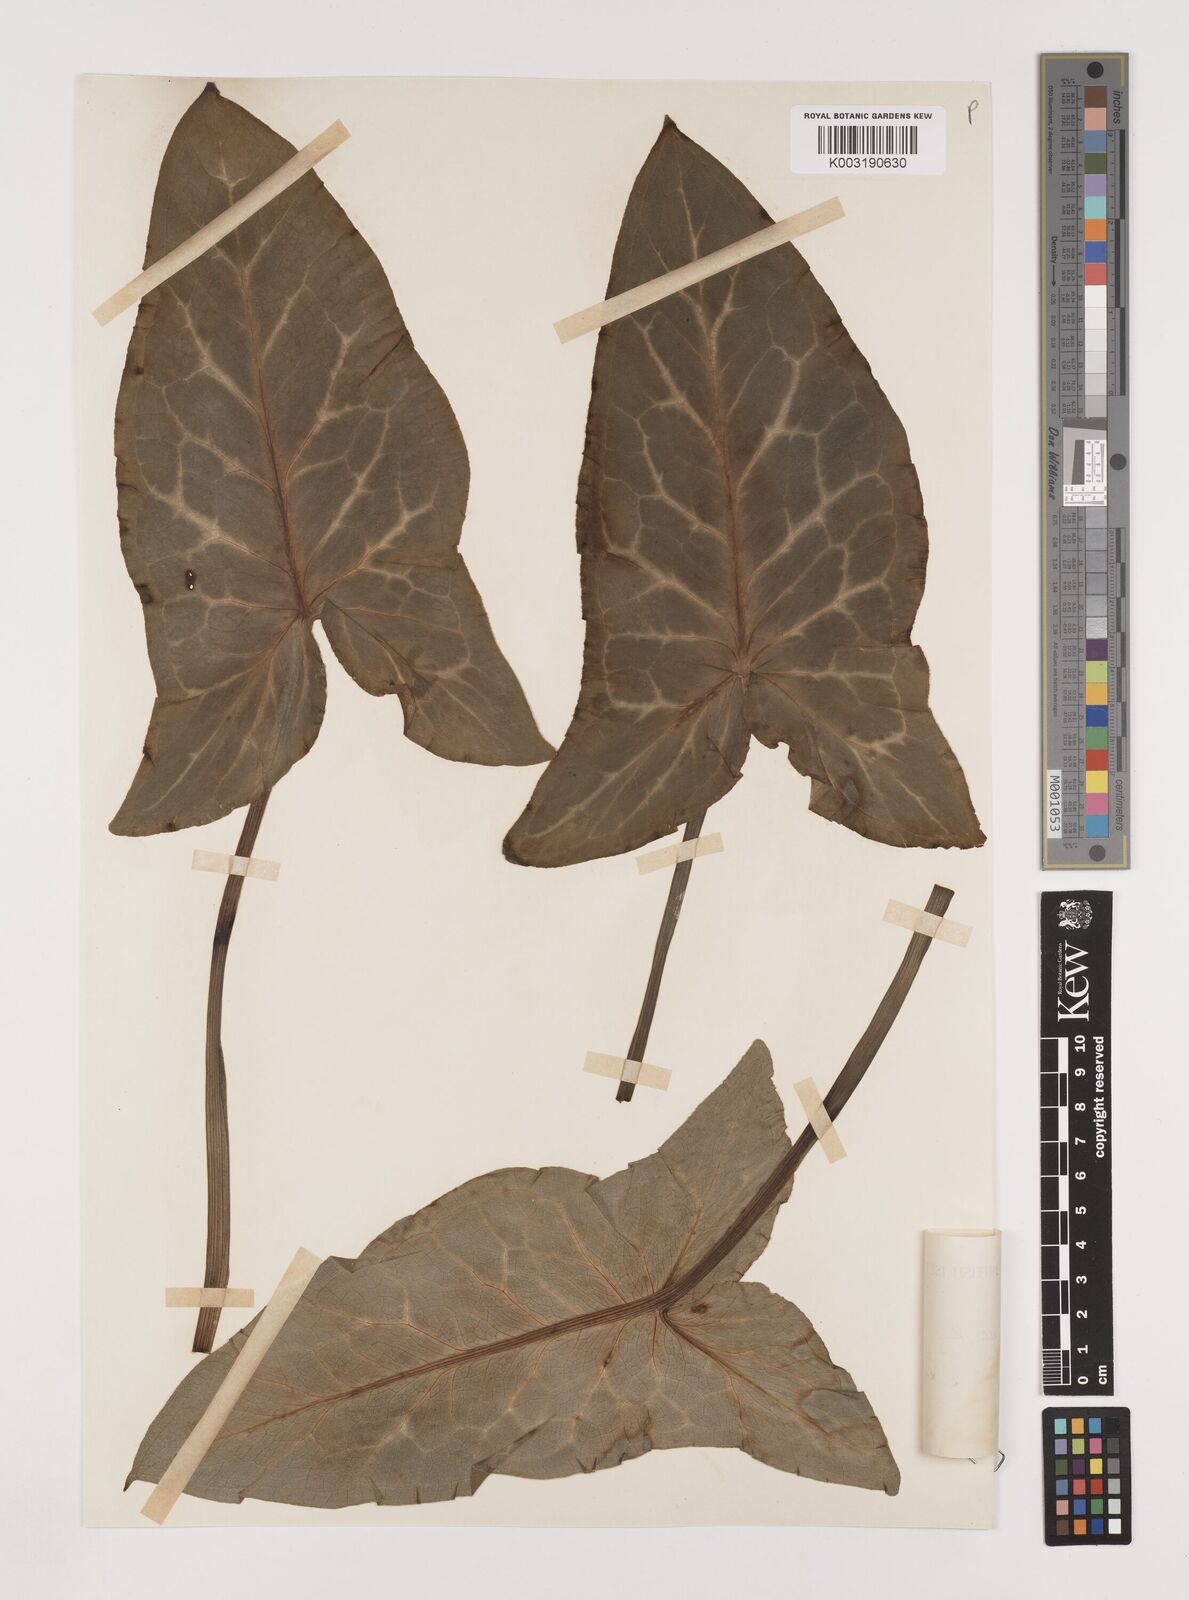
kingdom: Plantae
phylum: Tracheophyta
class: Liliopsida
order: Alismatales
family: Araceae
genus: Arum
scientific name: Arum italicum
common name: Italian lords-and-ladies
